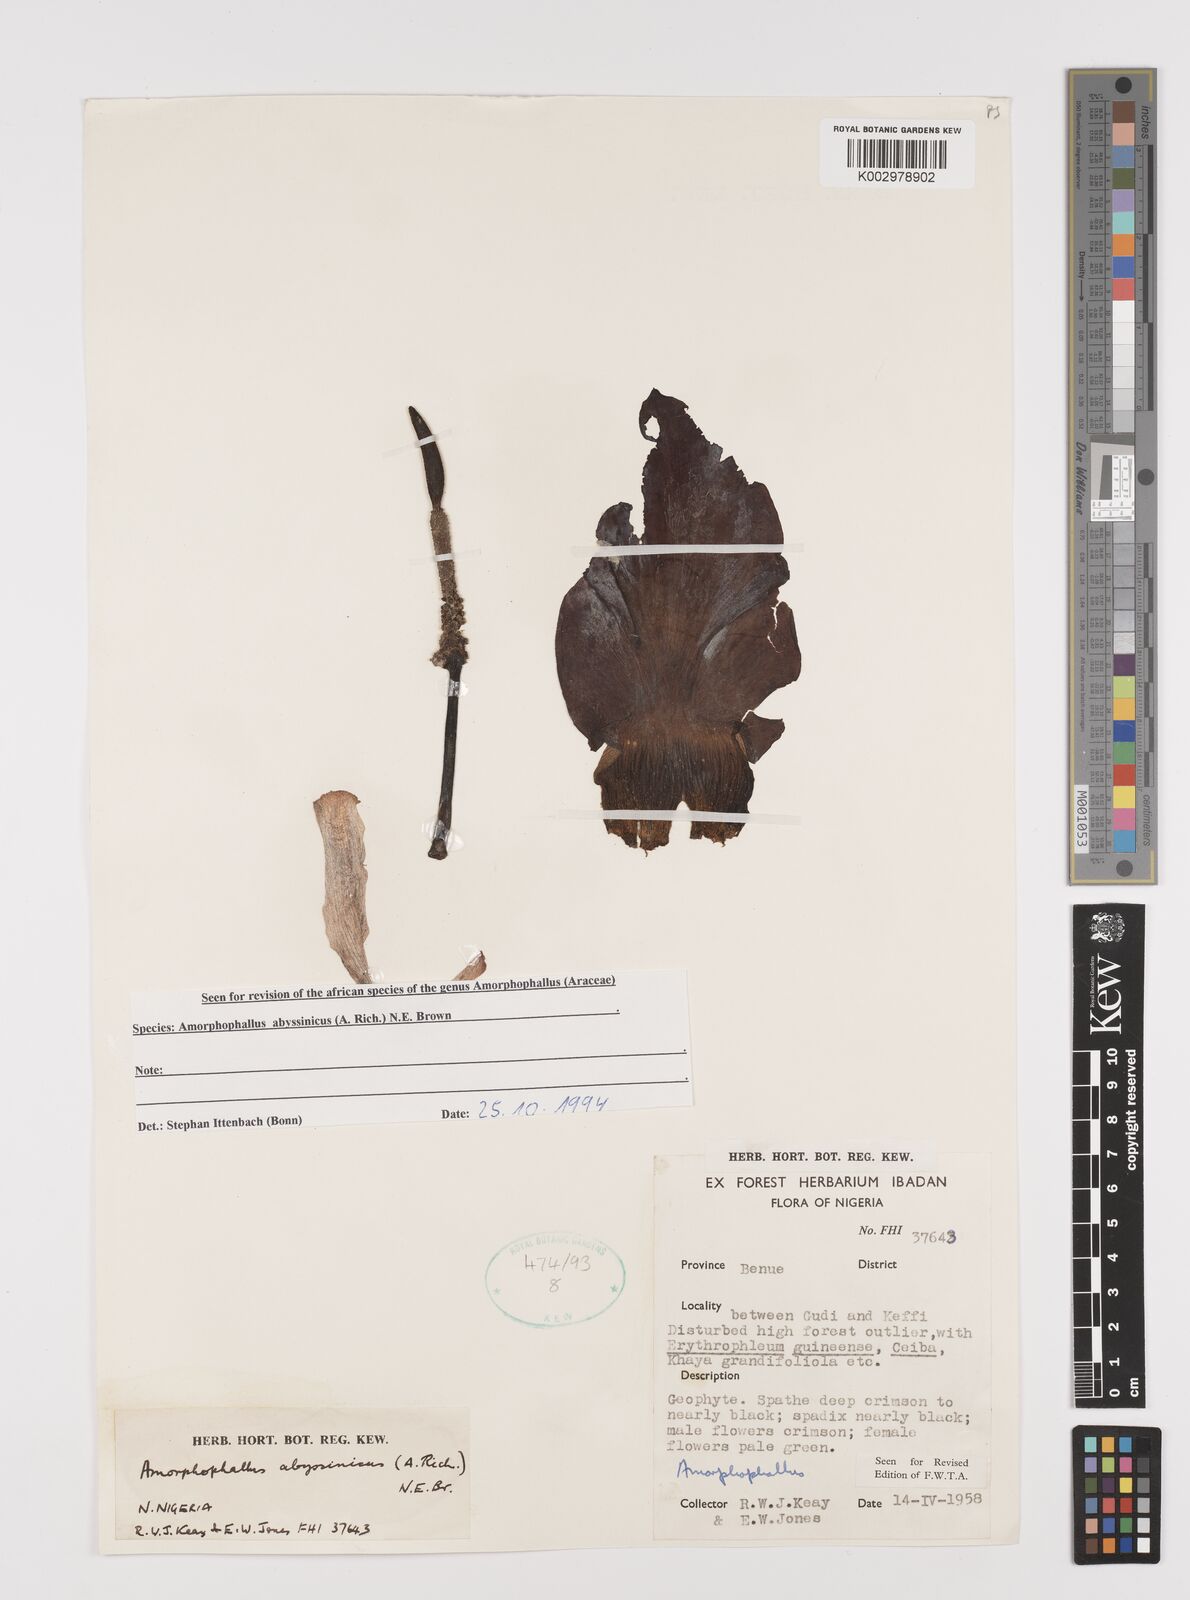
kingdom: Plantae
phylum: Tracheophyta
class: Liliopsida
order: Alismatales
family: Araceae
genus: Amorphophallus
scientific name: Amorphophallus abyssinicus
